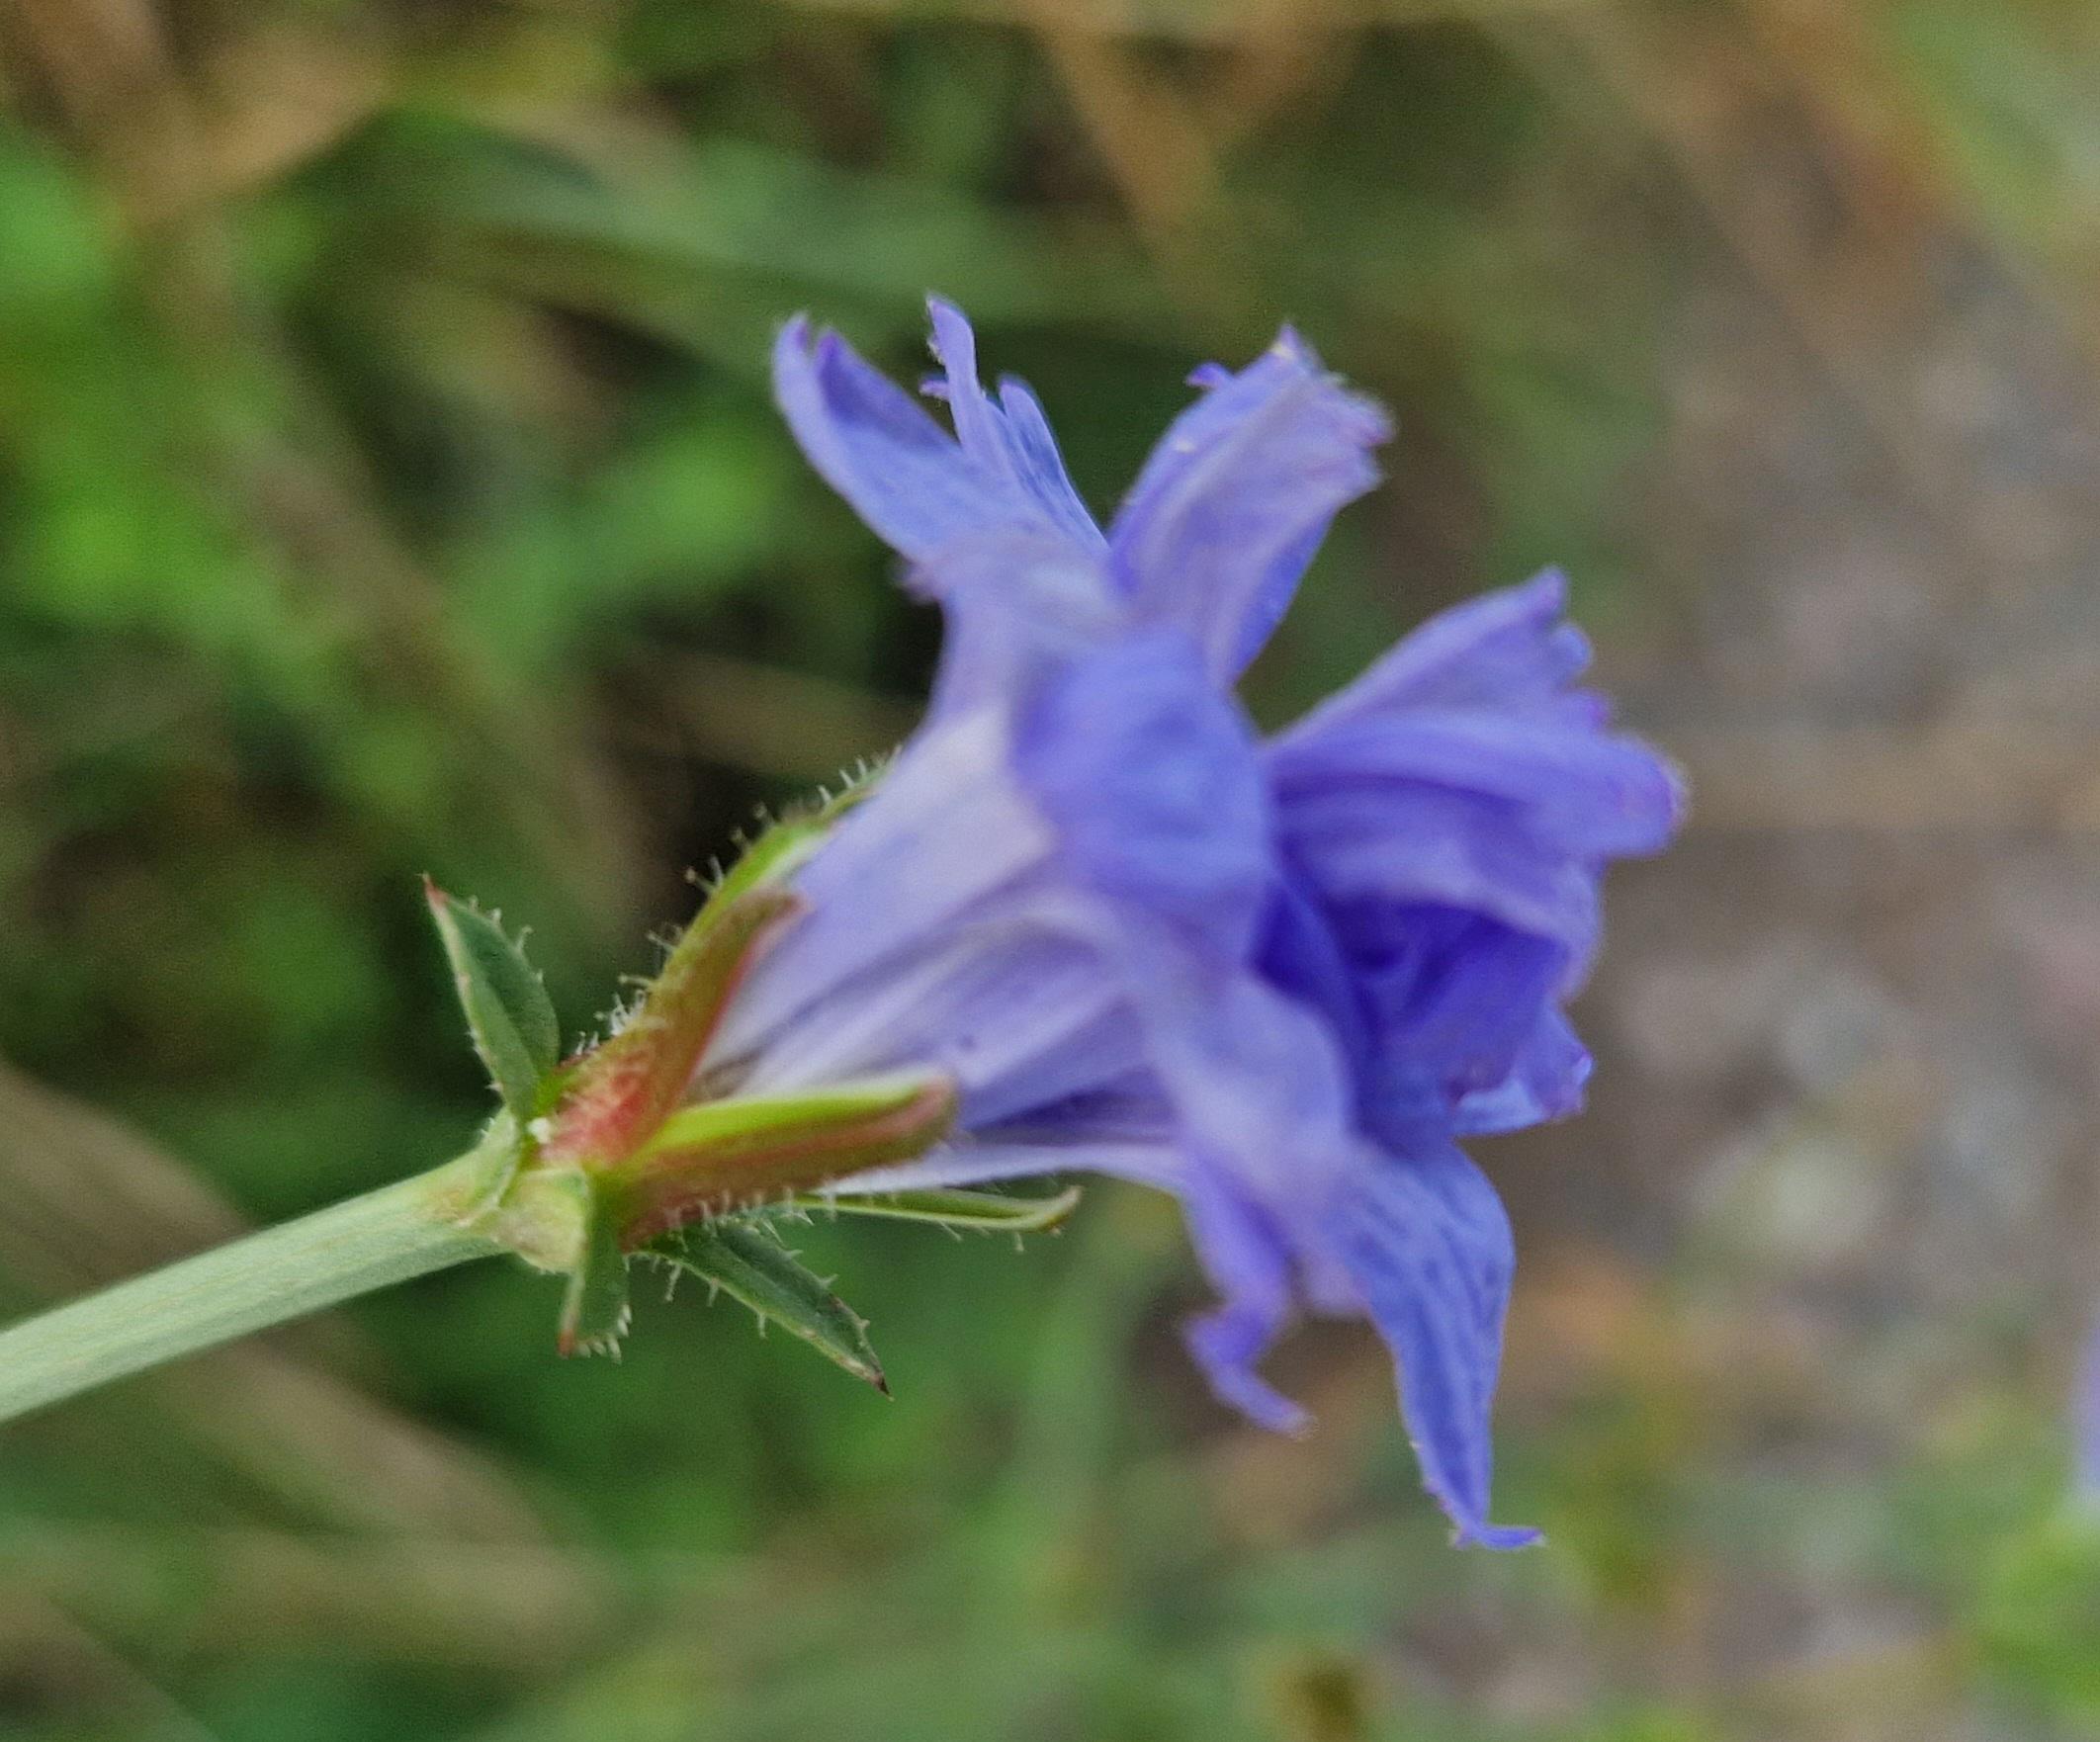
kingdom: Plantae
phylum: Tracheophyta
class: Magnoliopsida
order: Asterales
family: Asteraceae
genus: Cichorium
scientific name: Cichorium intybus
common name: Cikorie
